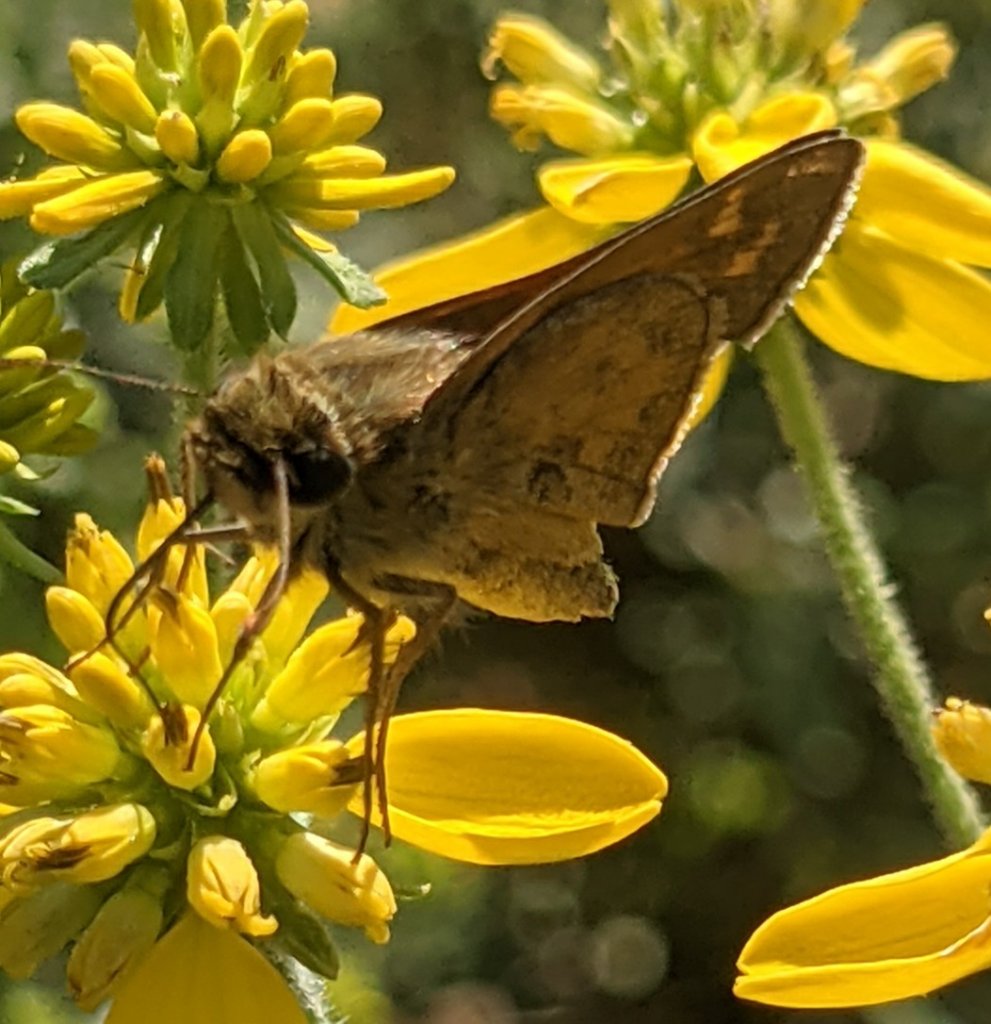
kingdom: Animalia
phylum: Arthropoda
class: Insecta
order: Lepidoptera
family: Hesperiidae
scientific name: Hesperiidae
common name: Skippers
